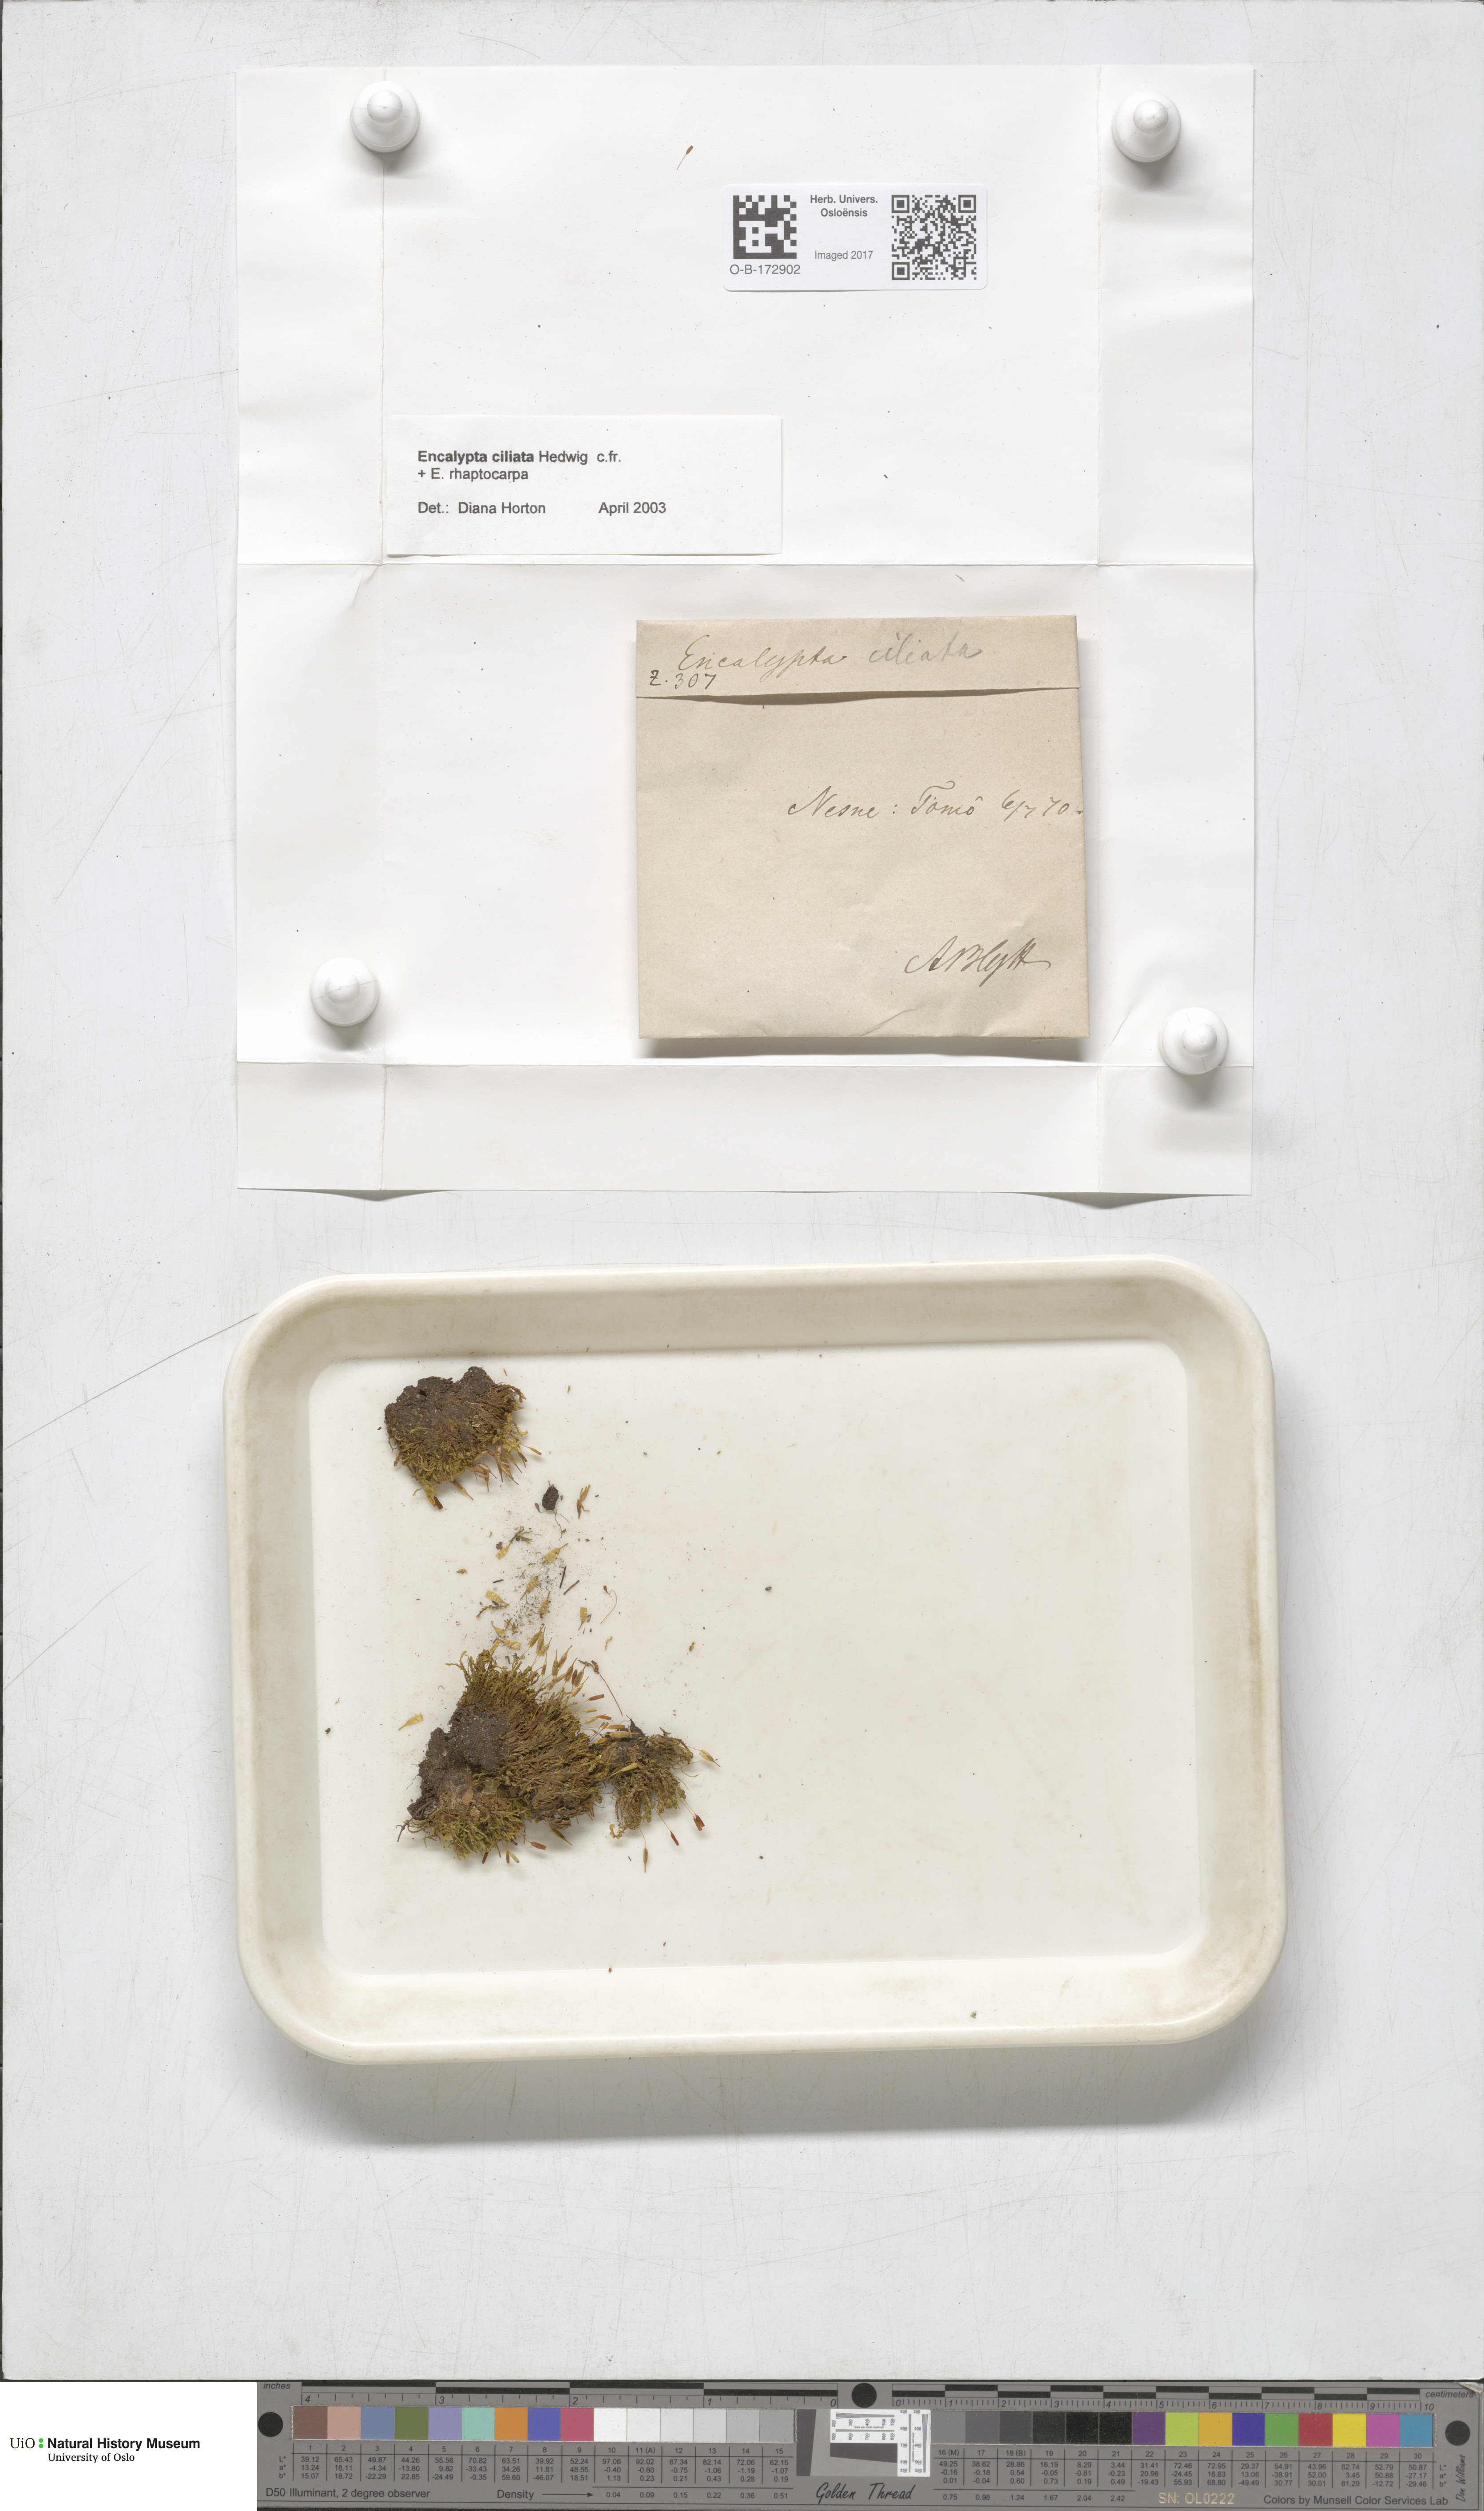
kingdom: Plantae
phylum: Bryophyta
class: Bryopsida
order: Encalyptales
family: Encalyptaceae
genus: Encalypta
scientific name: Encalypta ciliata
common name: Fringed extinguisher-moss
